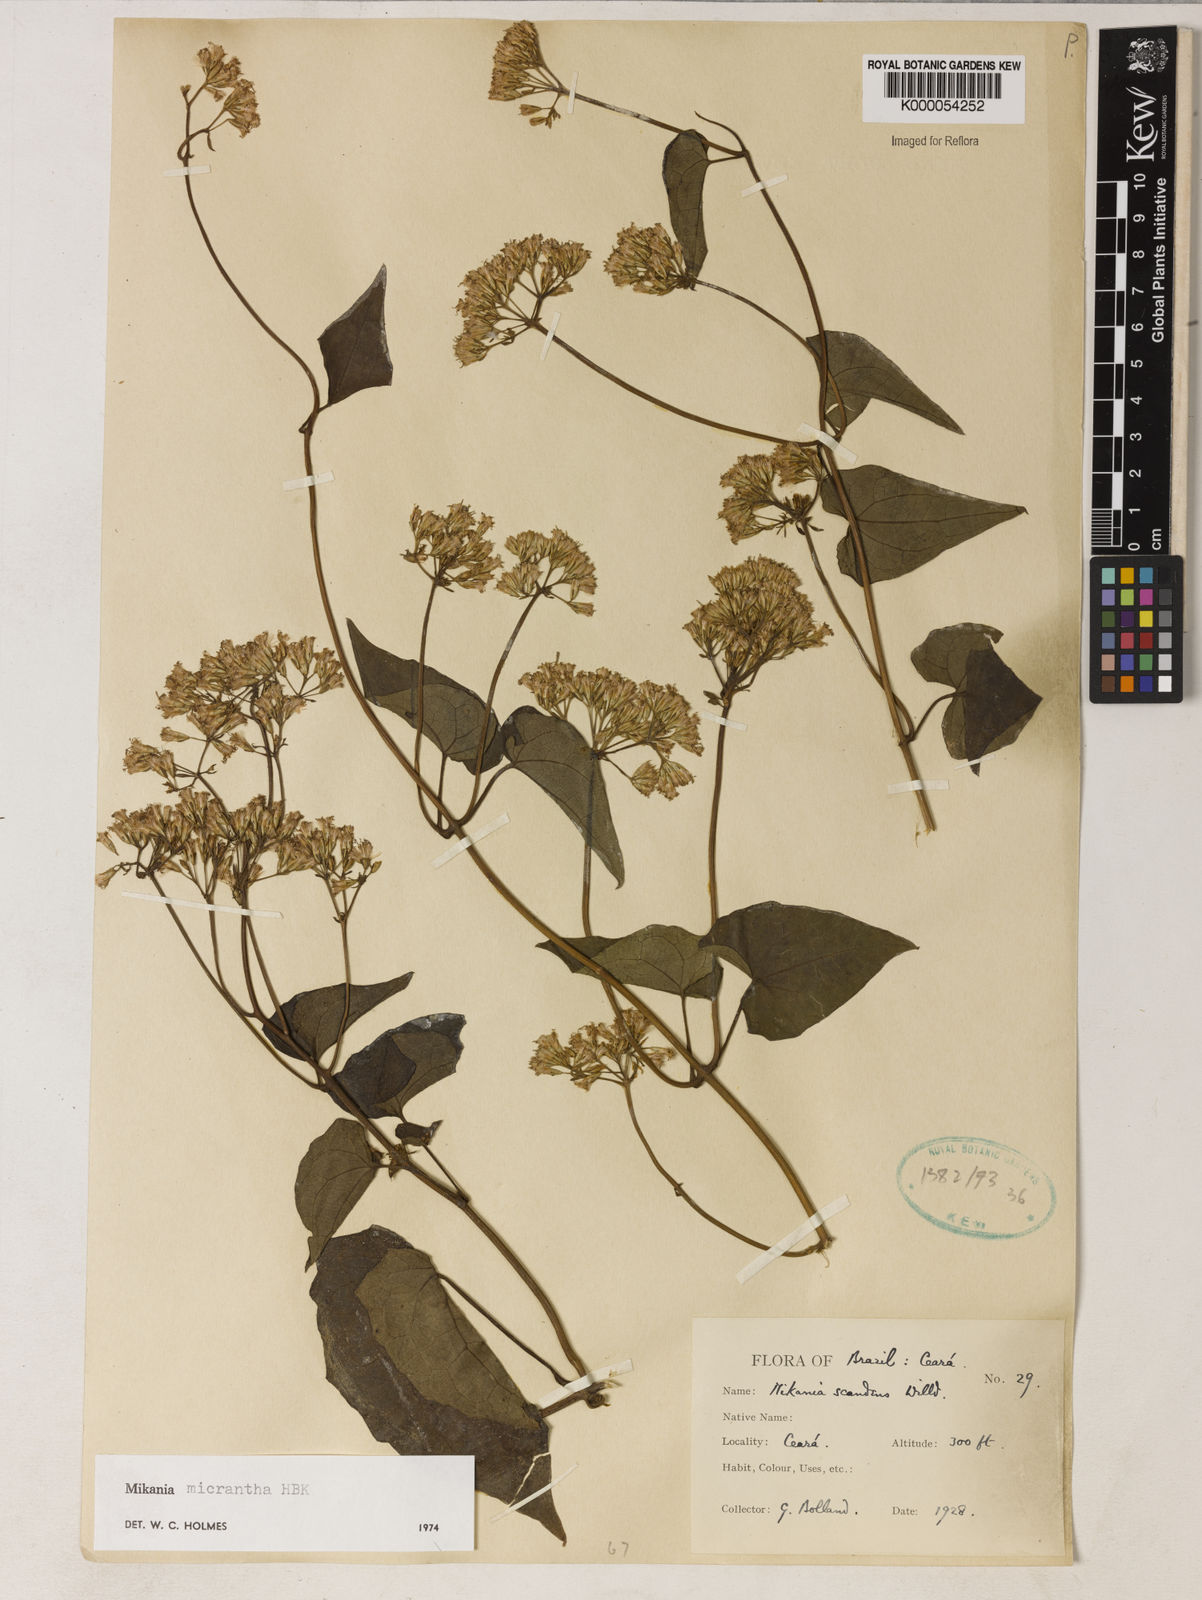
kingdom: Plantae
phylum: Tracheophyta
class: Magnoliopsida
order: Asterales
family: Asteraceae
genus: Mikania
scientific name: Mikania micrantha
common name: Mile-a-minute
